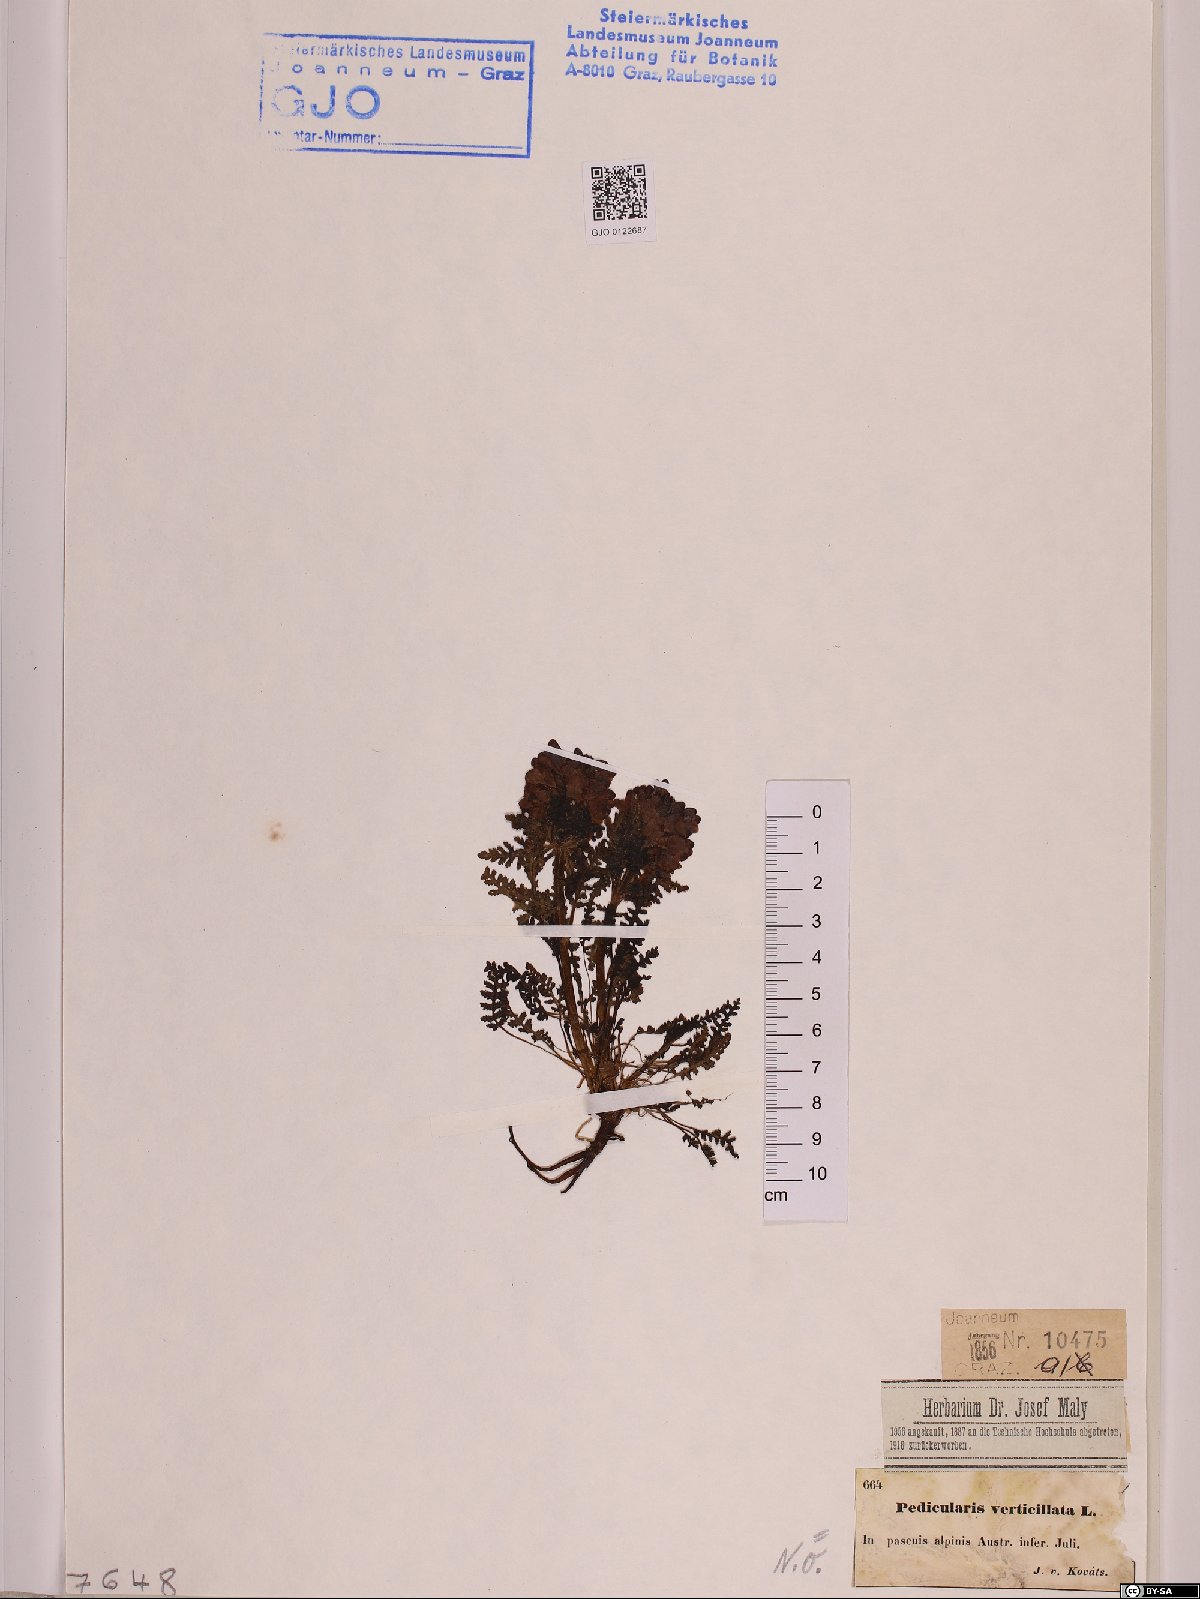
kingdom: Plantae
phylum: Tracheophyta
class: Magnoliopsida
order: Lamiales
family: Orobanchaceae
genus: Pedicularis
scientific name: Pedicularis verticillata
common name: Whorled lousewort
